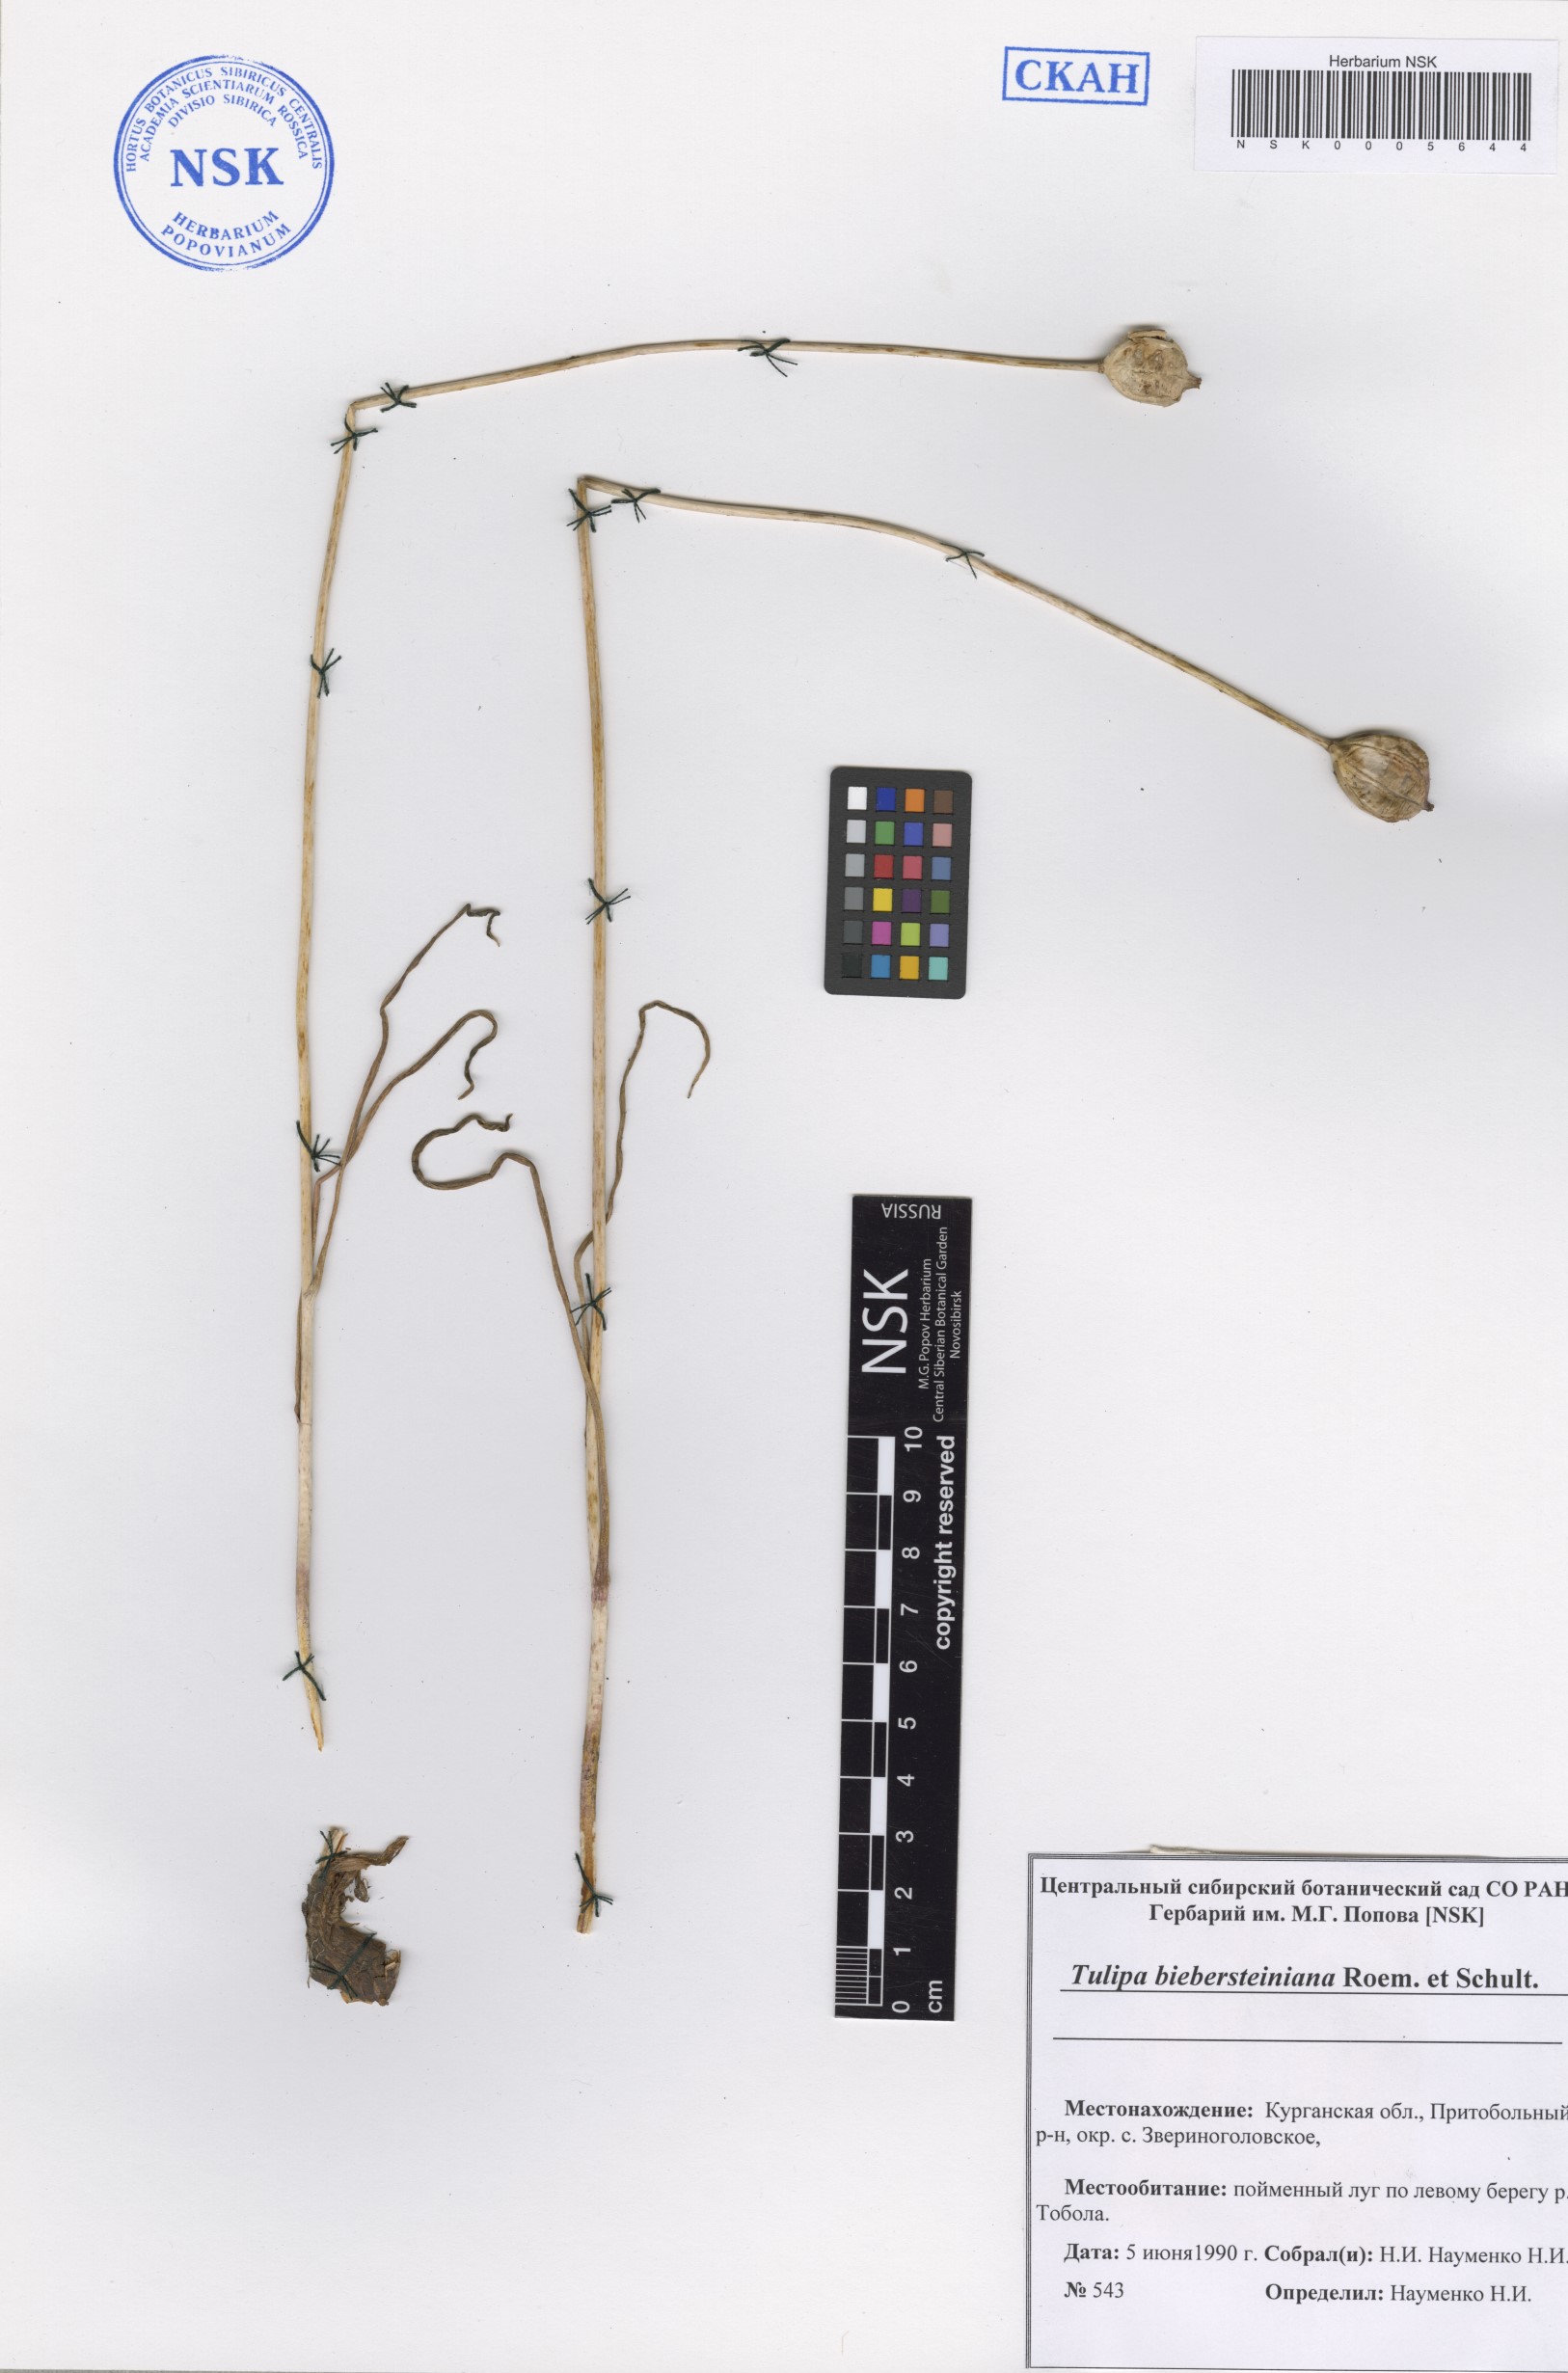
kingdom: Plantae
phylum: Tracheophyta
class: Liliopsida
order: Liliales
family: Liliaceae
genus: Tulipa
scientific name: Tulipa sylvestris
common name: Wild tulip
